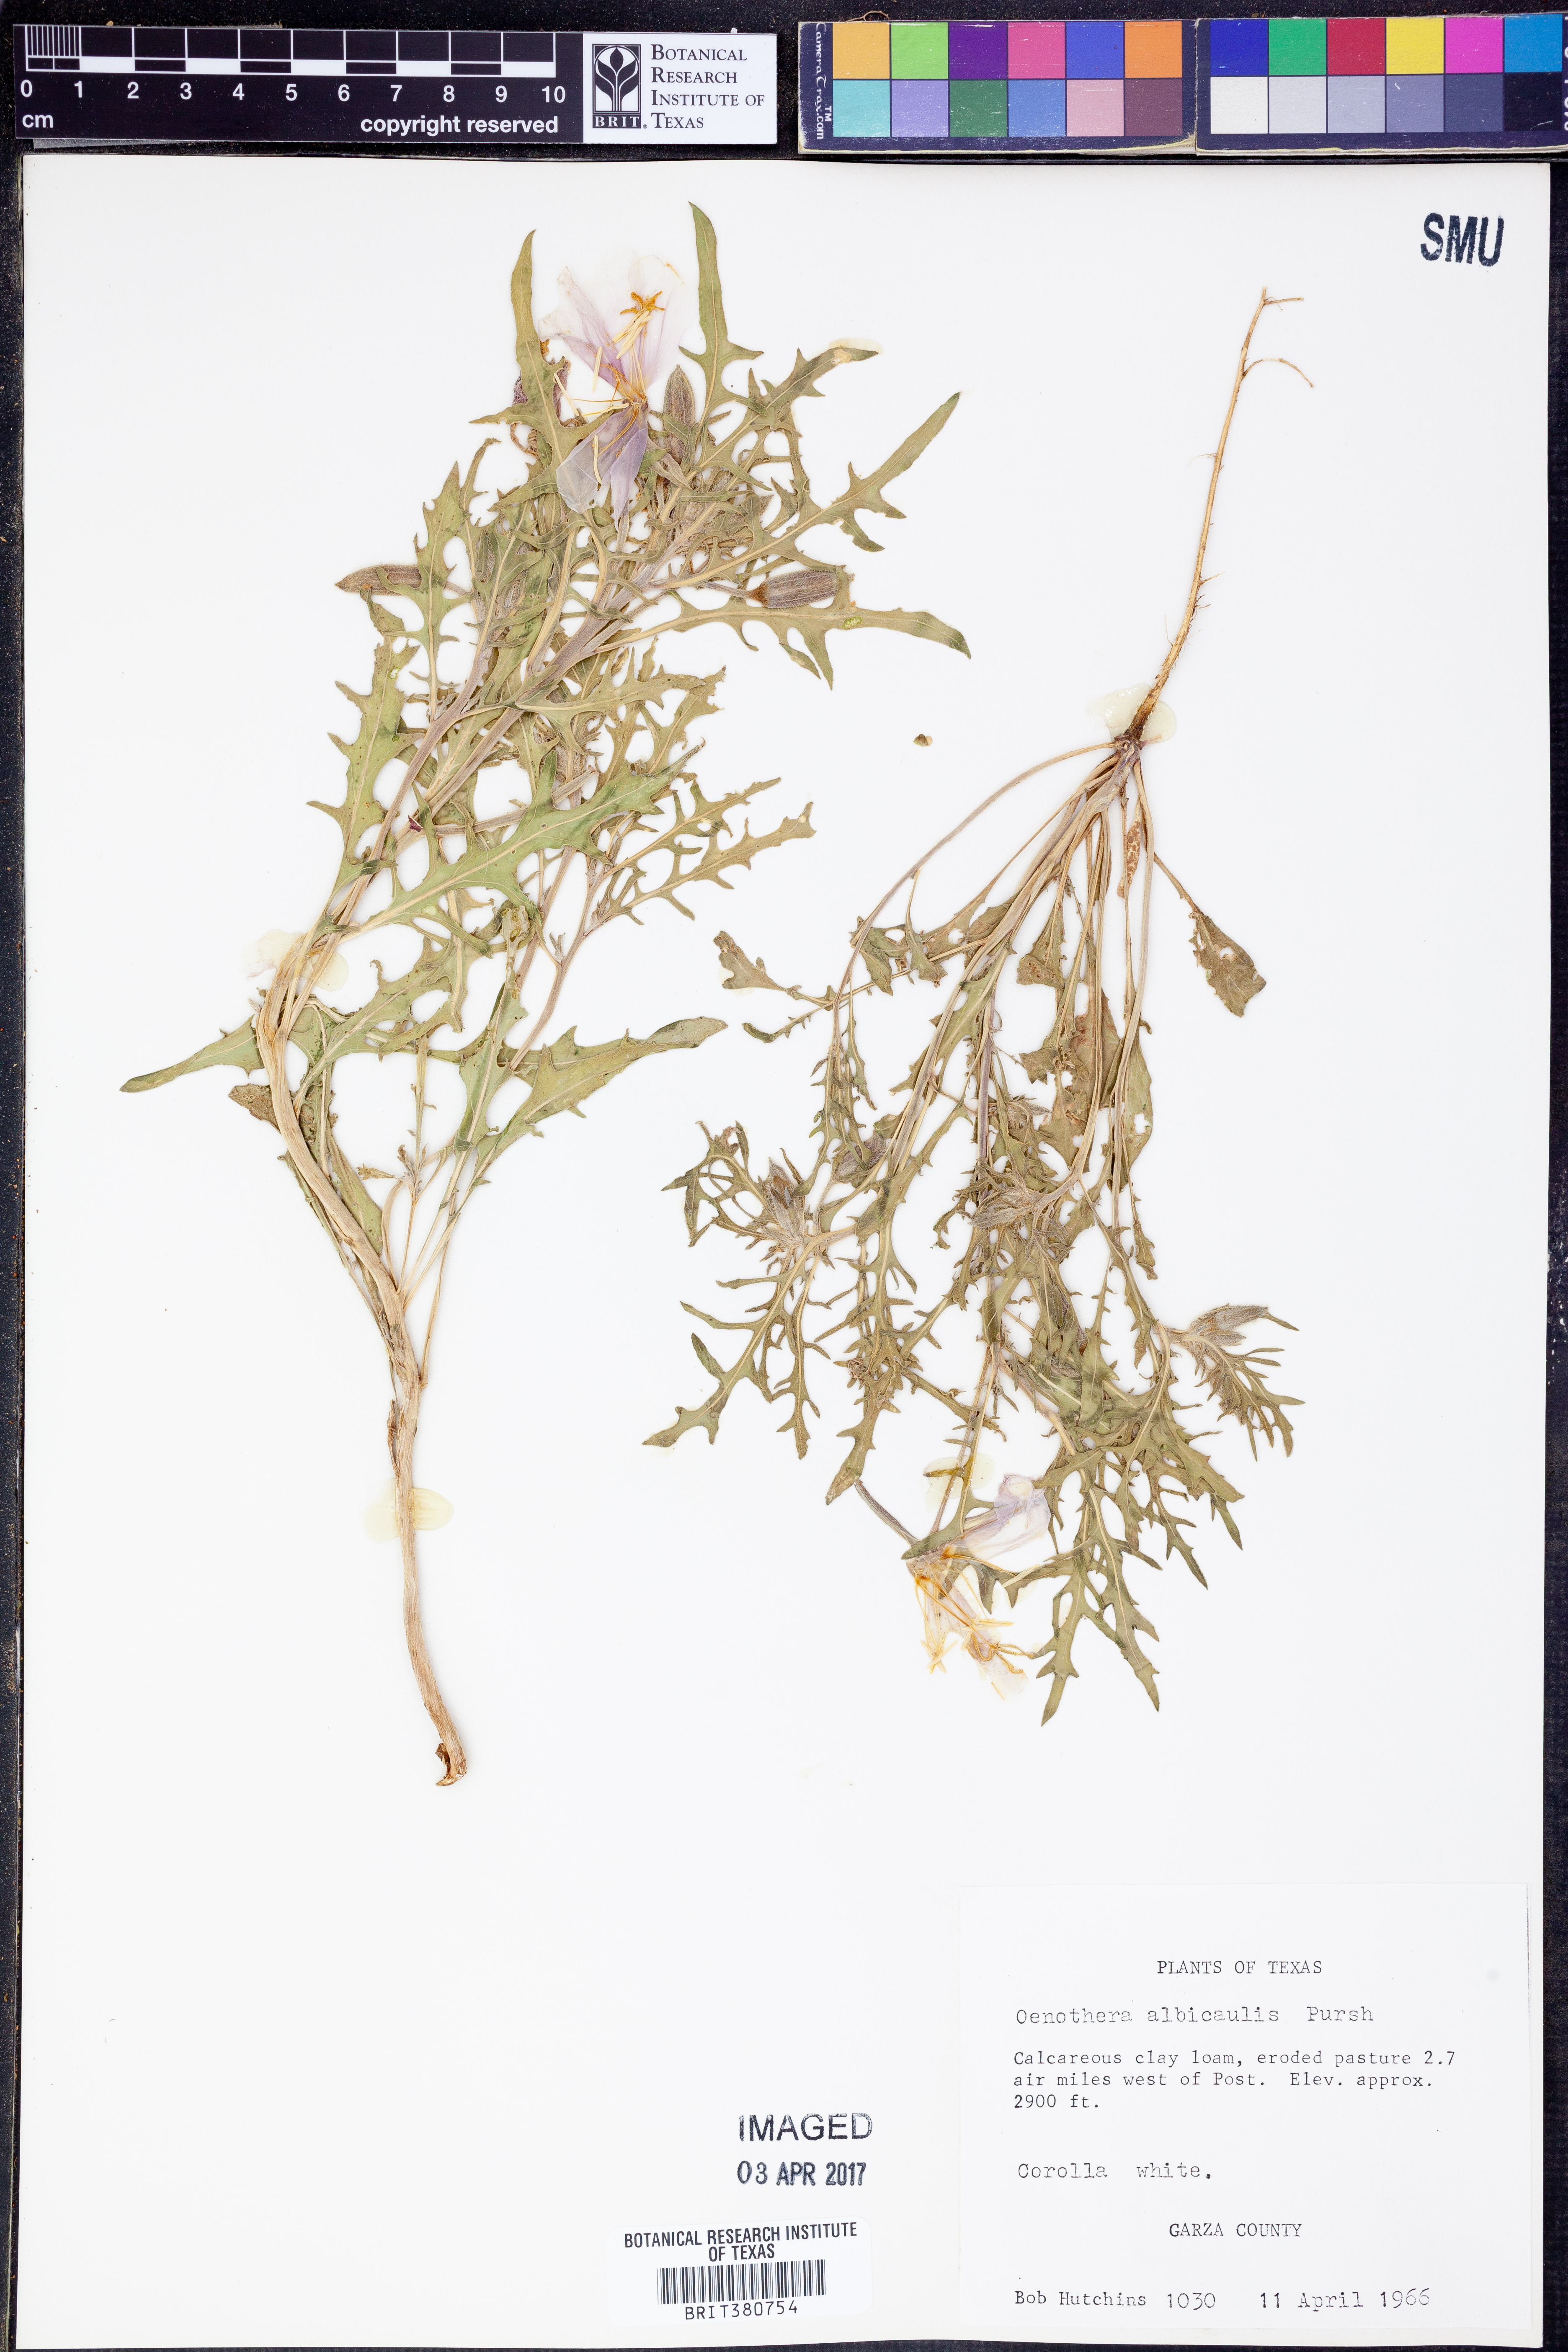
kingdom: Plantae
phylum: Tracheophyta
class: Magnoliopsida
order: Myrtales
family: Onagraceae
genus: Oenothera
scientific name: Oenothera albicaulis
